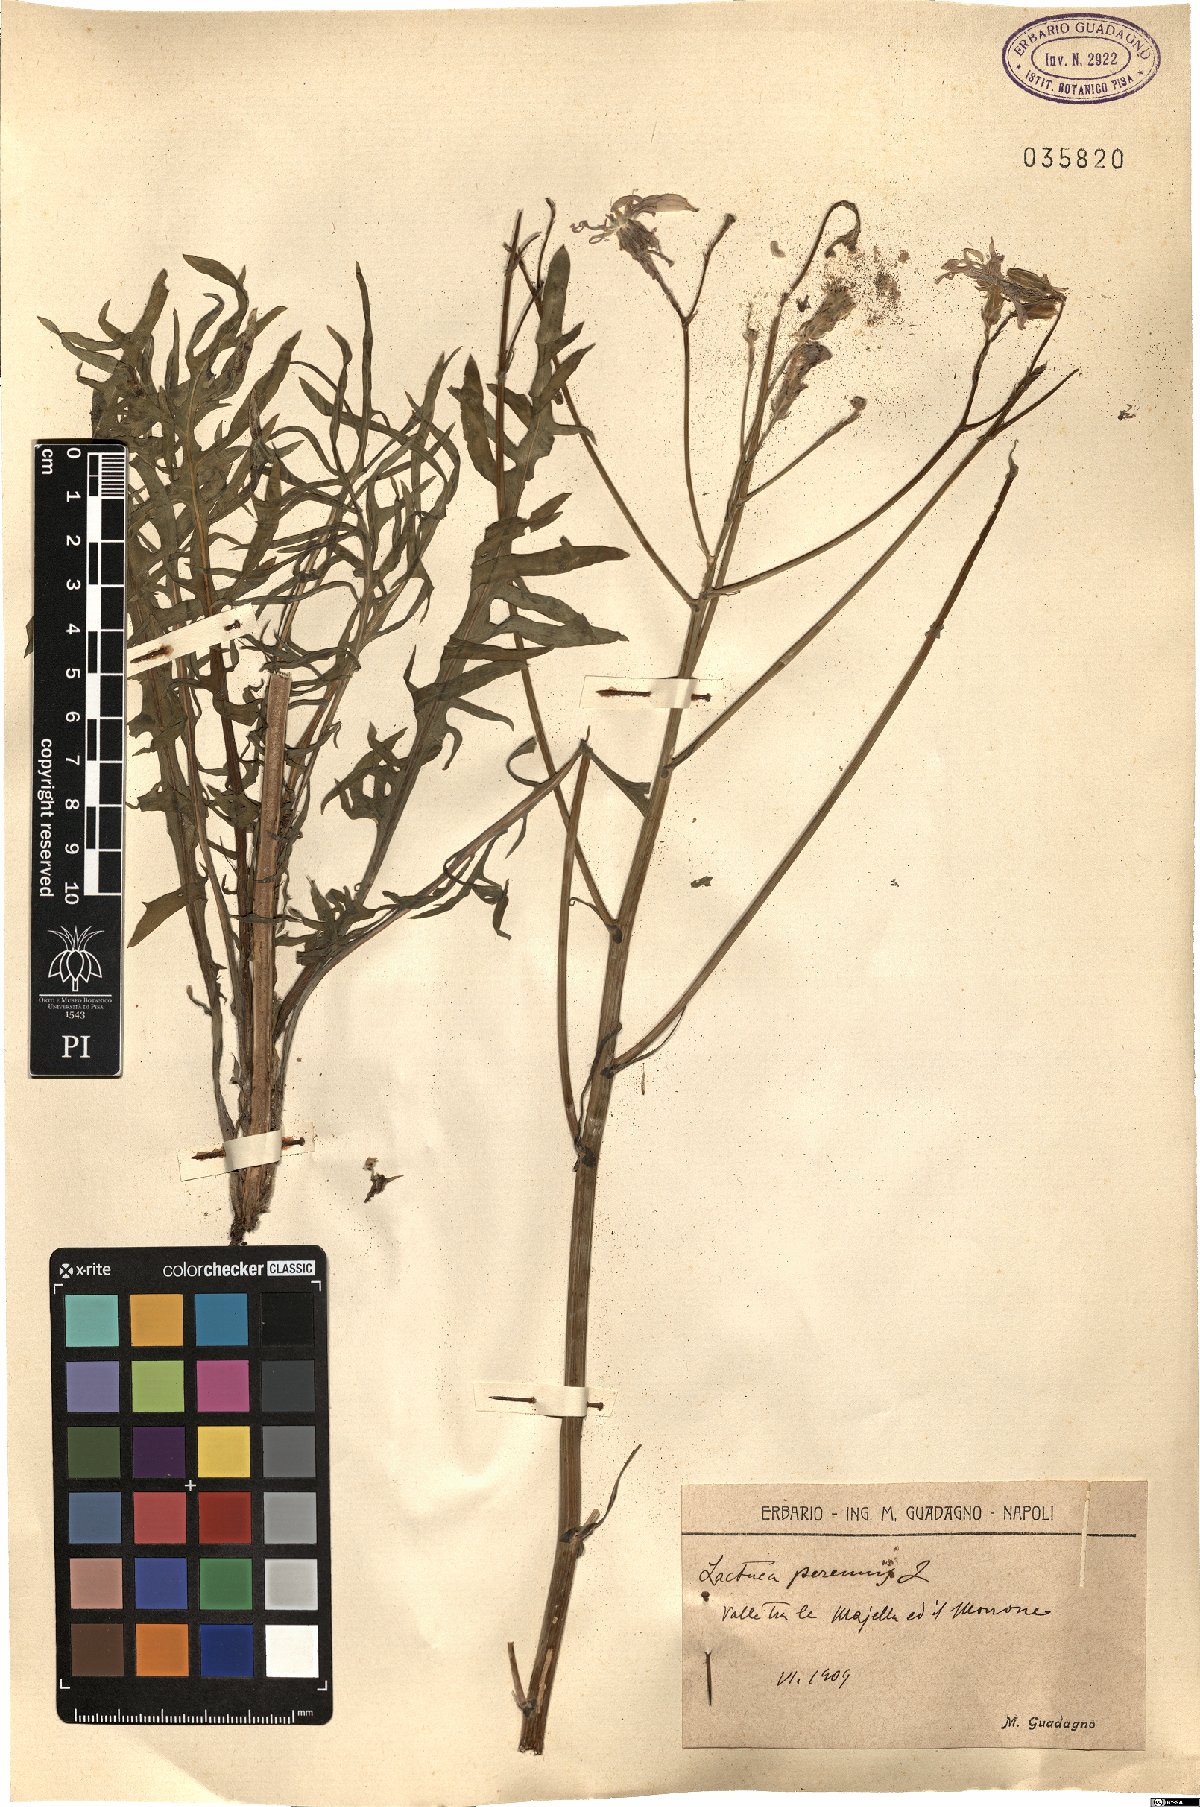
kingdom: Plantae
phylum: Tracheophyta
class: Magnoliopsida
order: Asterales
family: Asteraceae
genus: Lactuca
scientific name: Lactuca perennis
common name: Mountain lettuce
